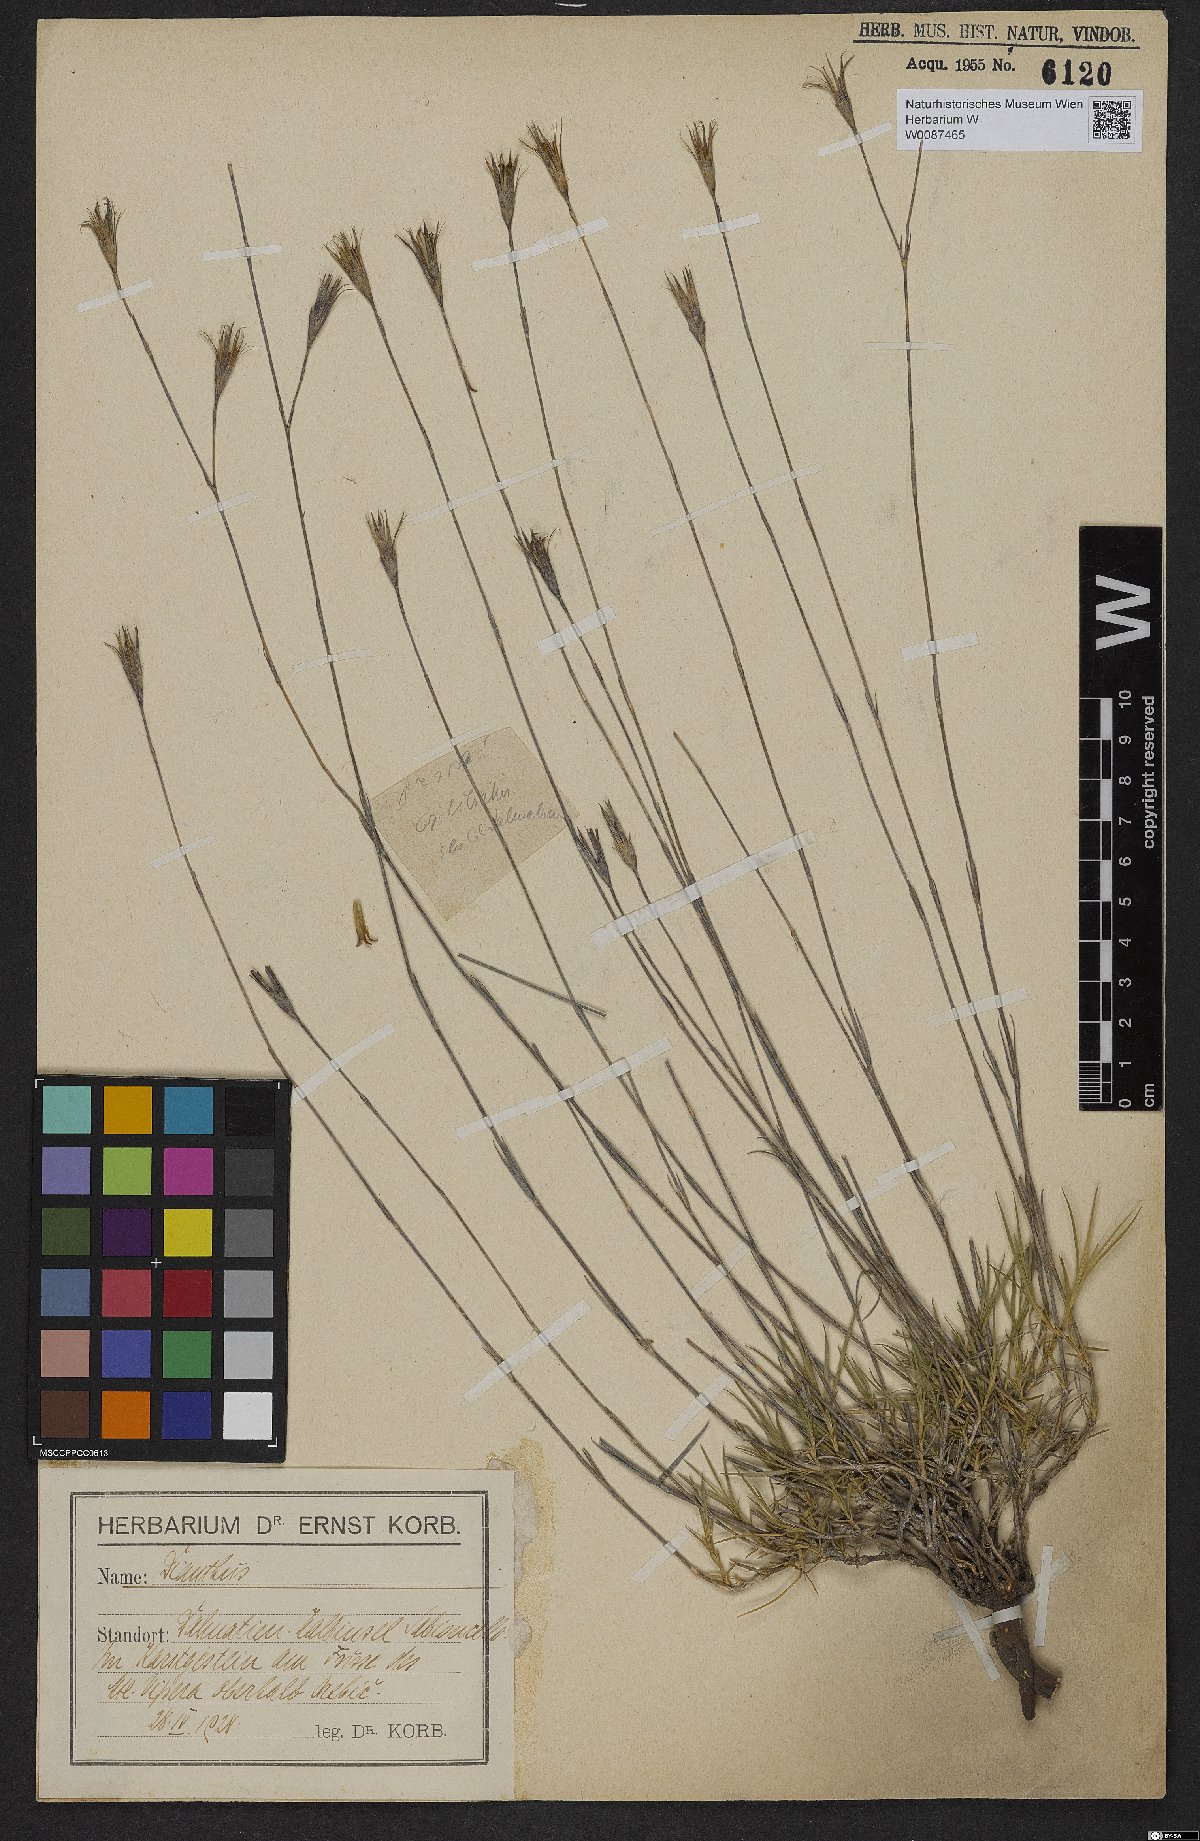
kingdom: Plantae
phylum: Tracheophyta
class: Magnoliopsida
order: Caryophyllales
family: Caryophyllaceae
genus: Dianthus
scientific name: Dianthus
